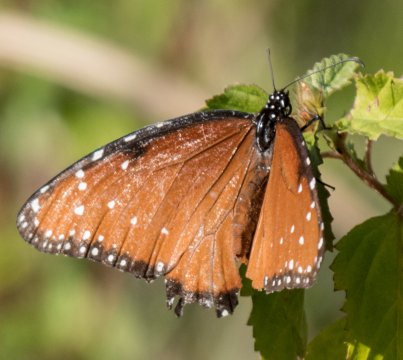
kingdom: Animalia
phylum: Arthropoda
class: Insecta
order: Lepidoptera
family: Nymphalidae
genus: Danaus
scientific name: Danaus gilippus
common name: Queen
